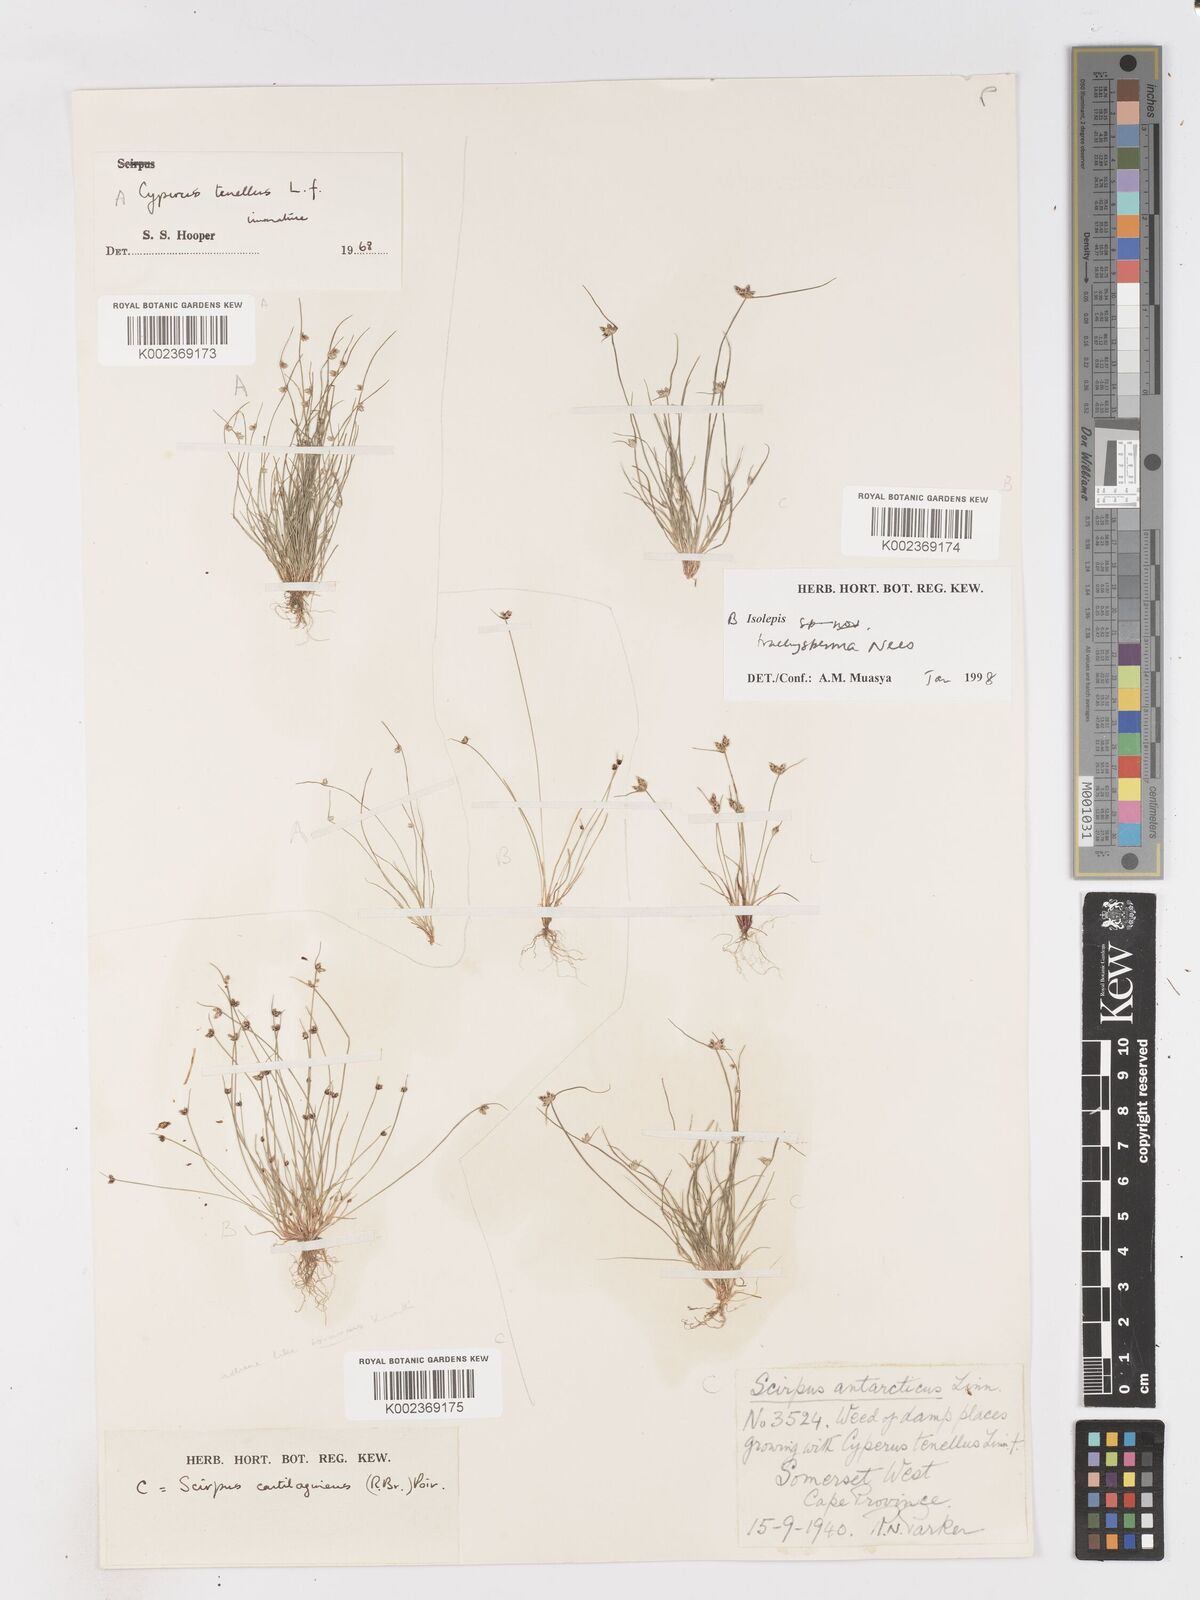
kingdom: Plantae
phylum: Tracheophyta
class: Liliopsida
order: Poales
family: Cyperaceae
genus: Isolepis
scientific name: Isolepis trachysperma
